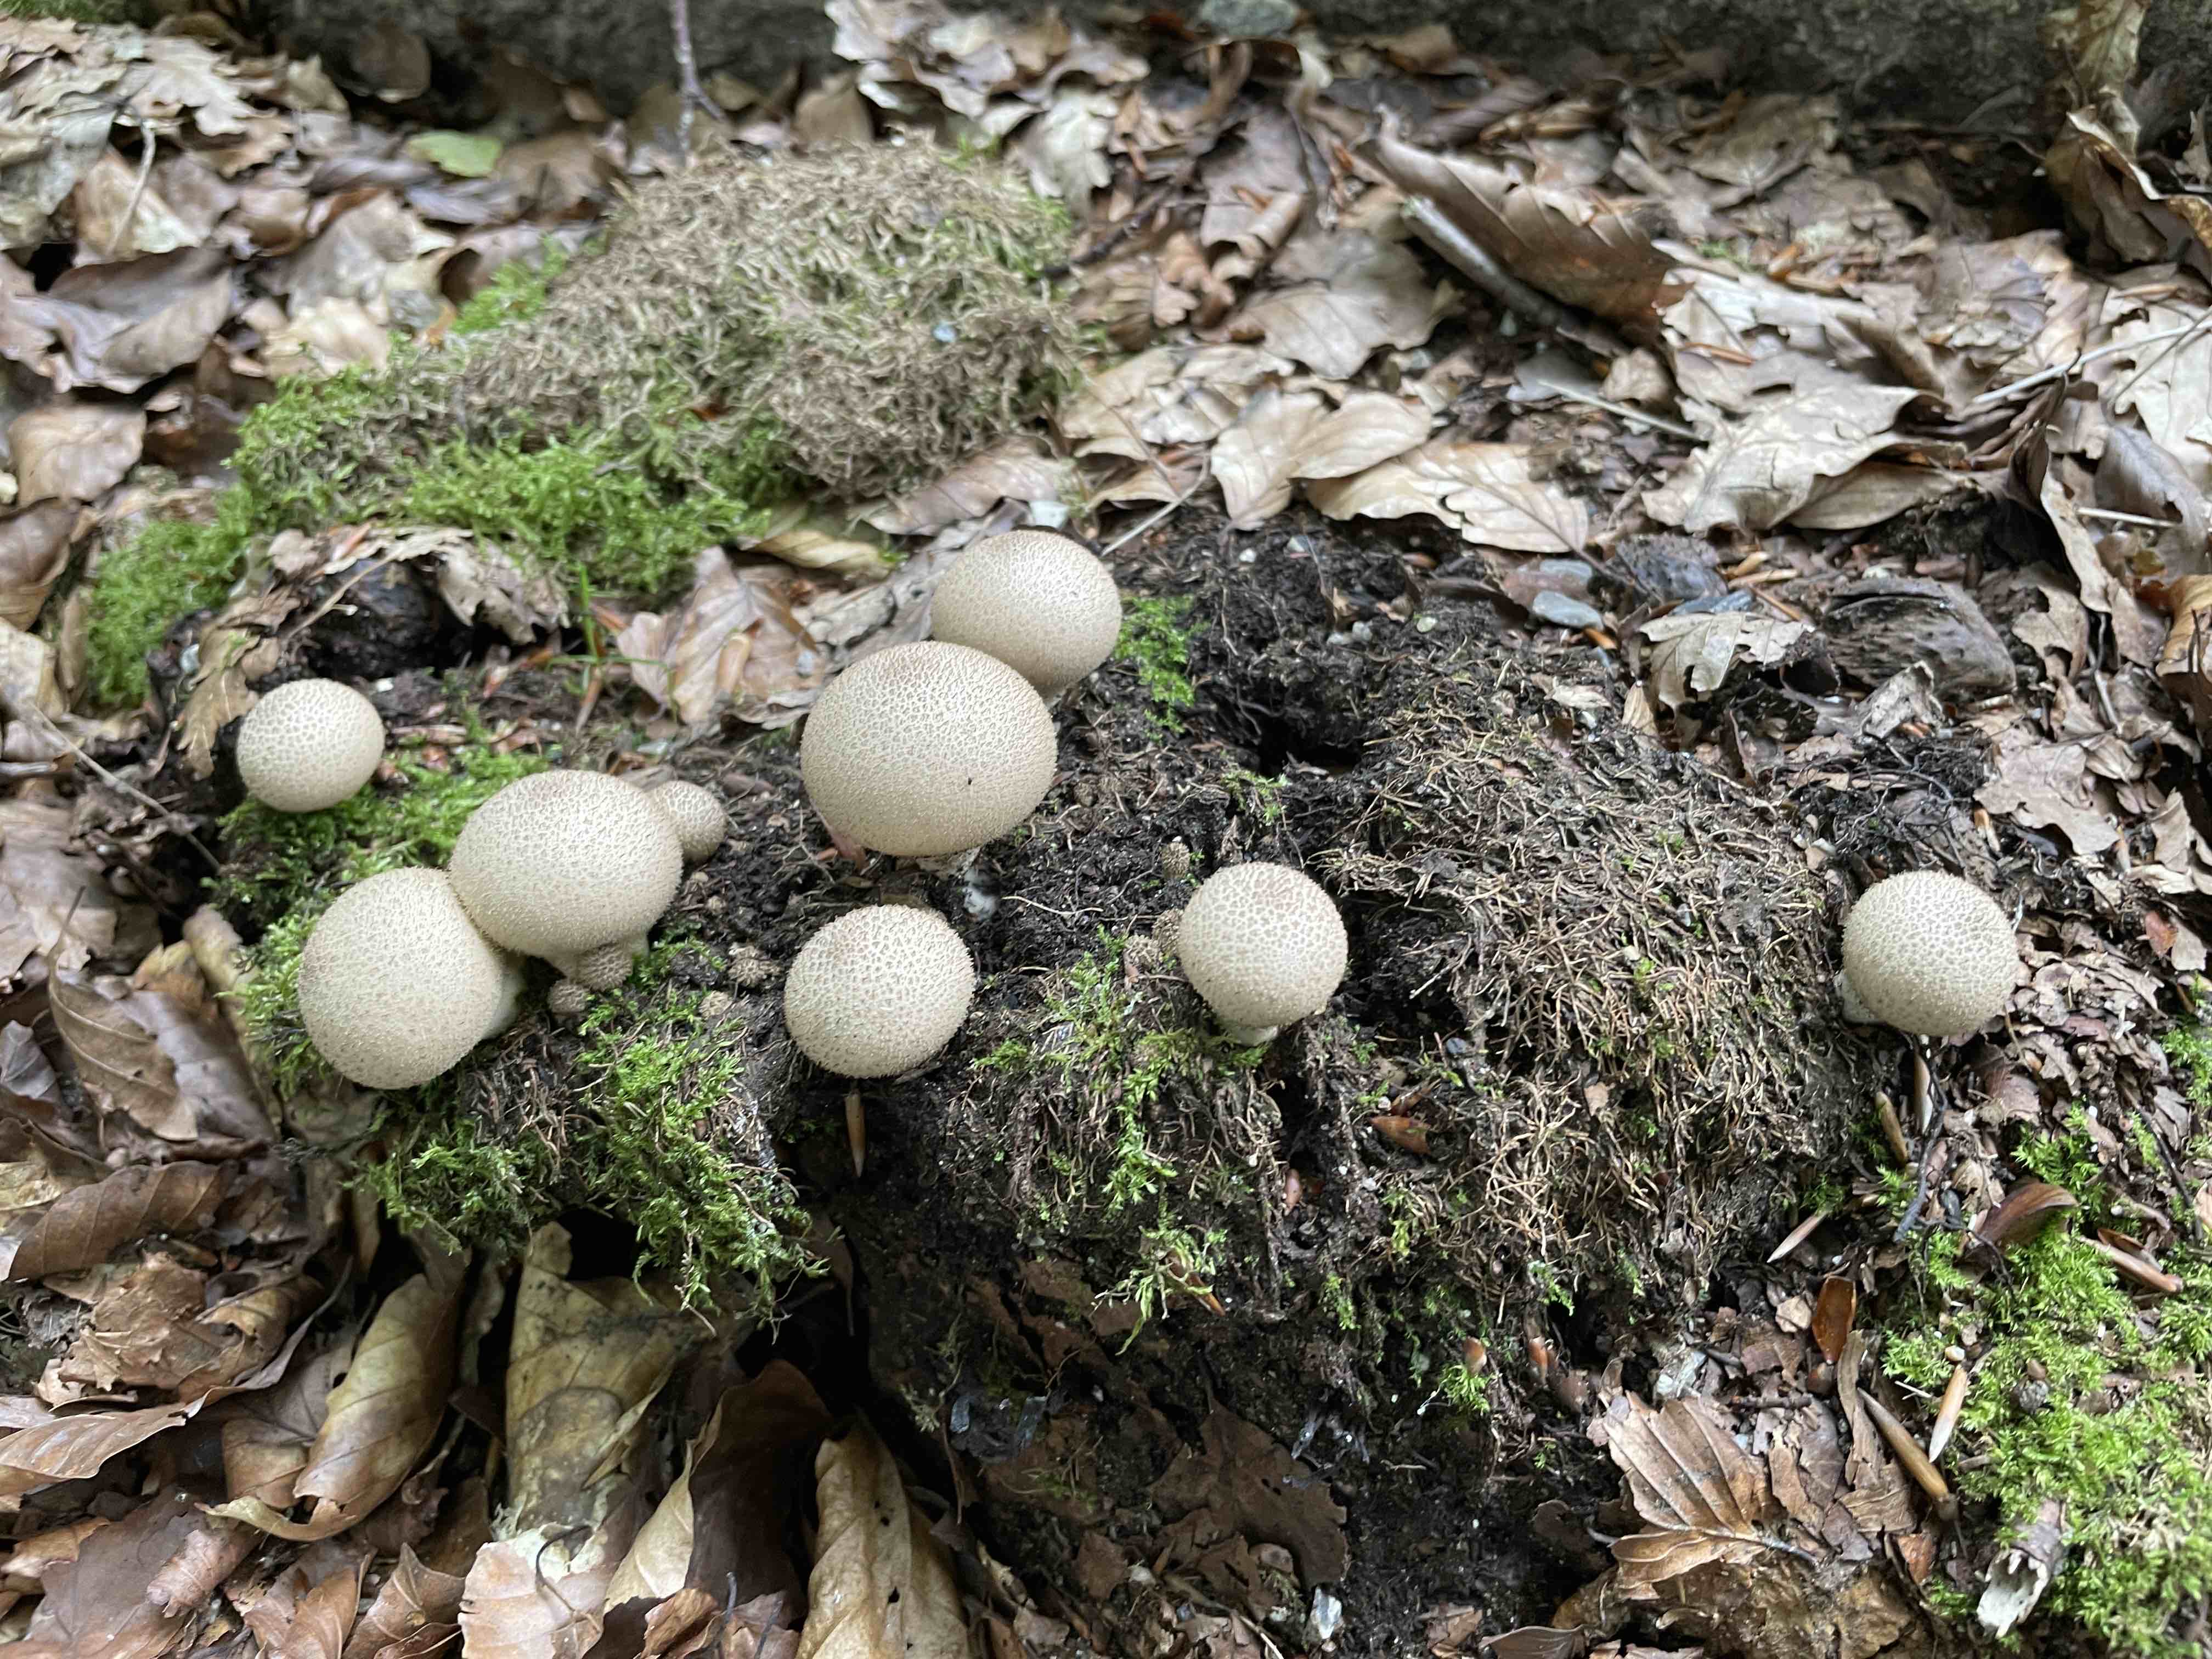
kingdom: Fungi
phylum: Basidiomycota
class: Agaricomycetes
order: Agaricales
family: Lycoperdaceae
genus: Apioperdon
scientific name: Apioperdon pyriforme
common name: pære-støvbold
